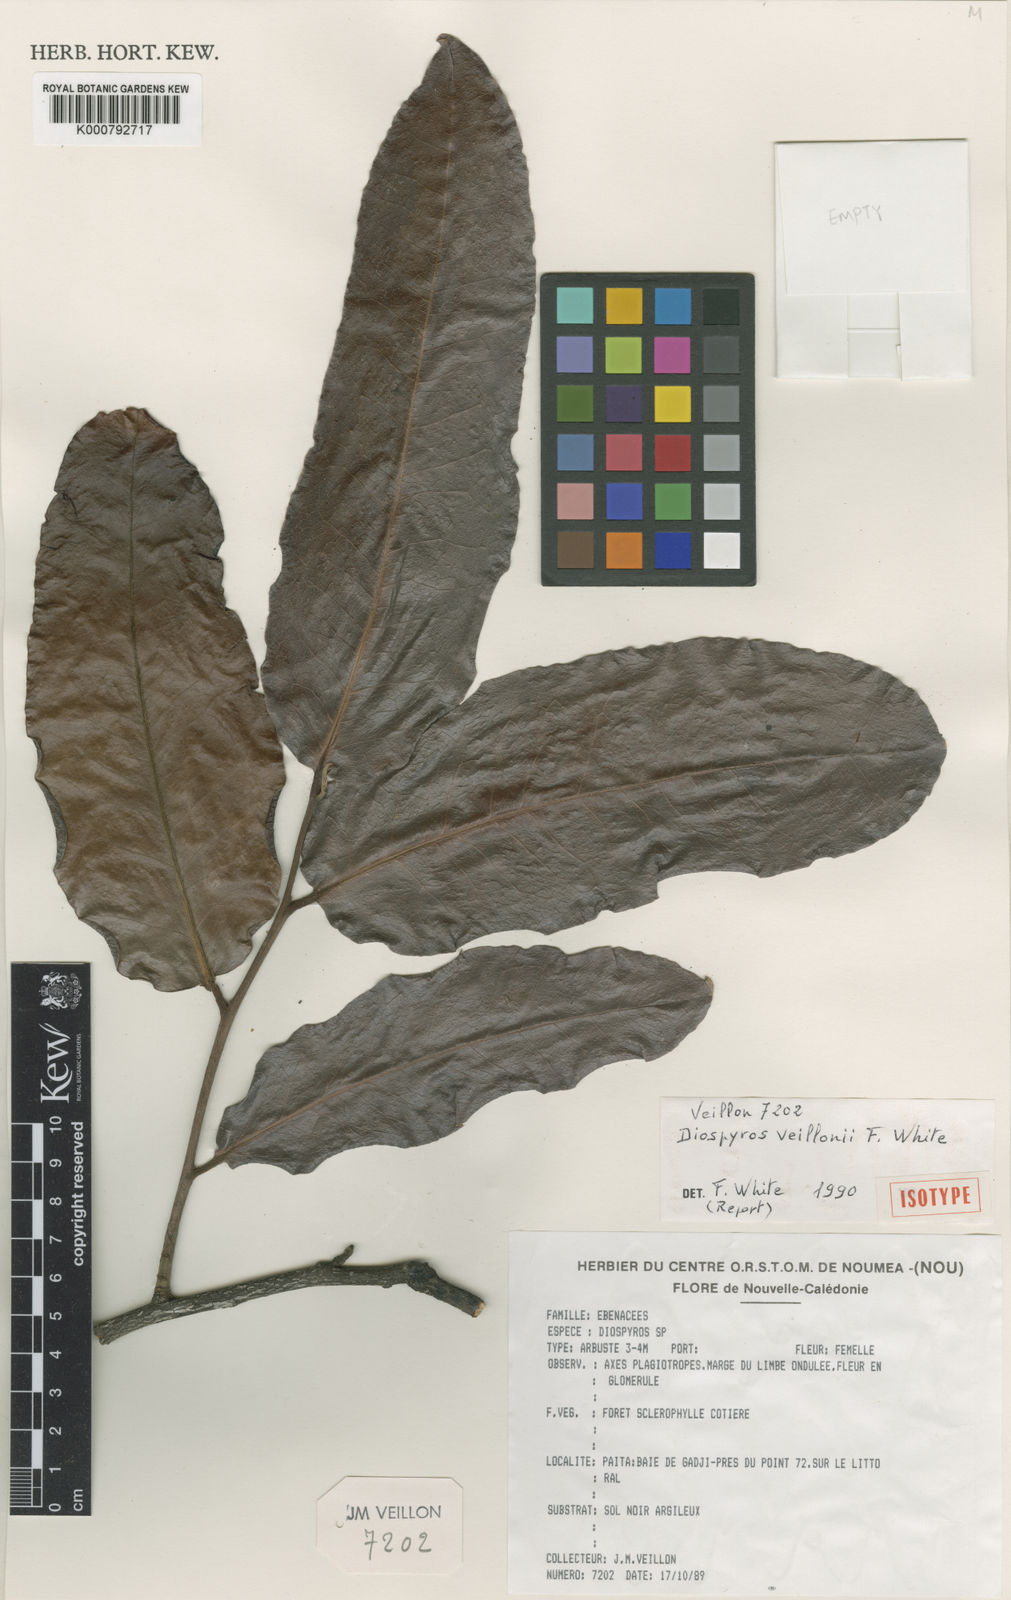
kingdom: Plantae
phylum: Tracheophyta
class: Magnoliopsida
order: Ericales
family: Ebenaceae
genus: Diospyros
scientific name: Diospyros veillonii
